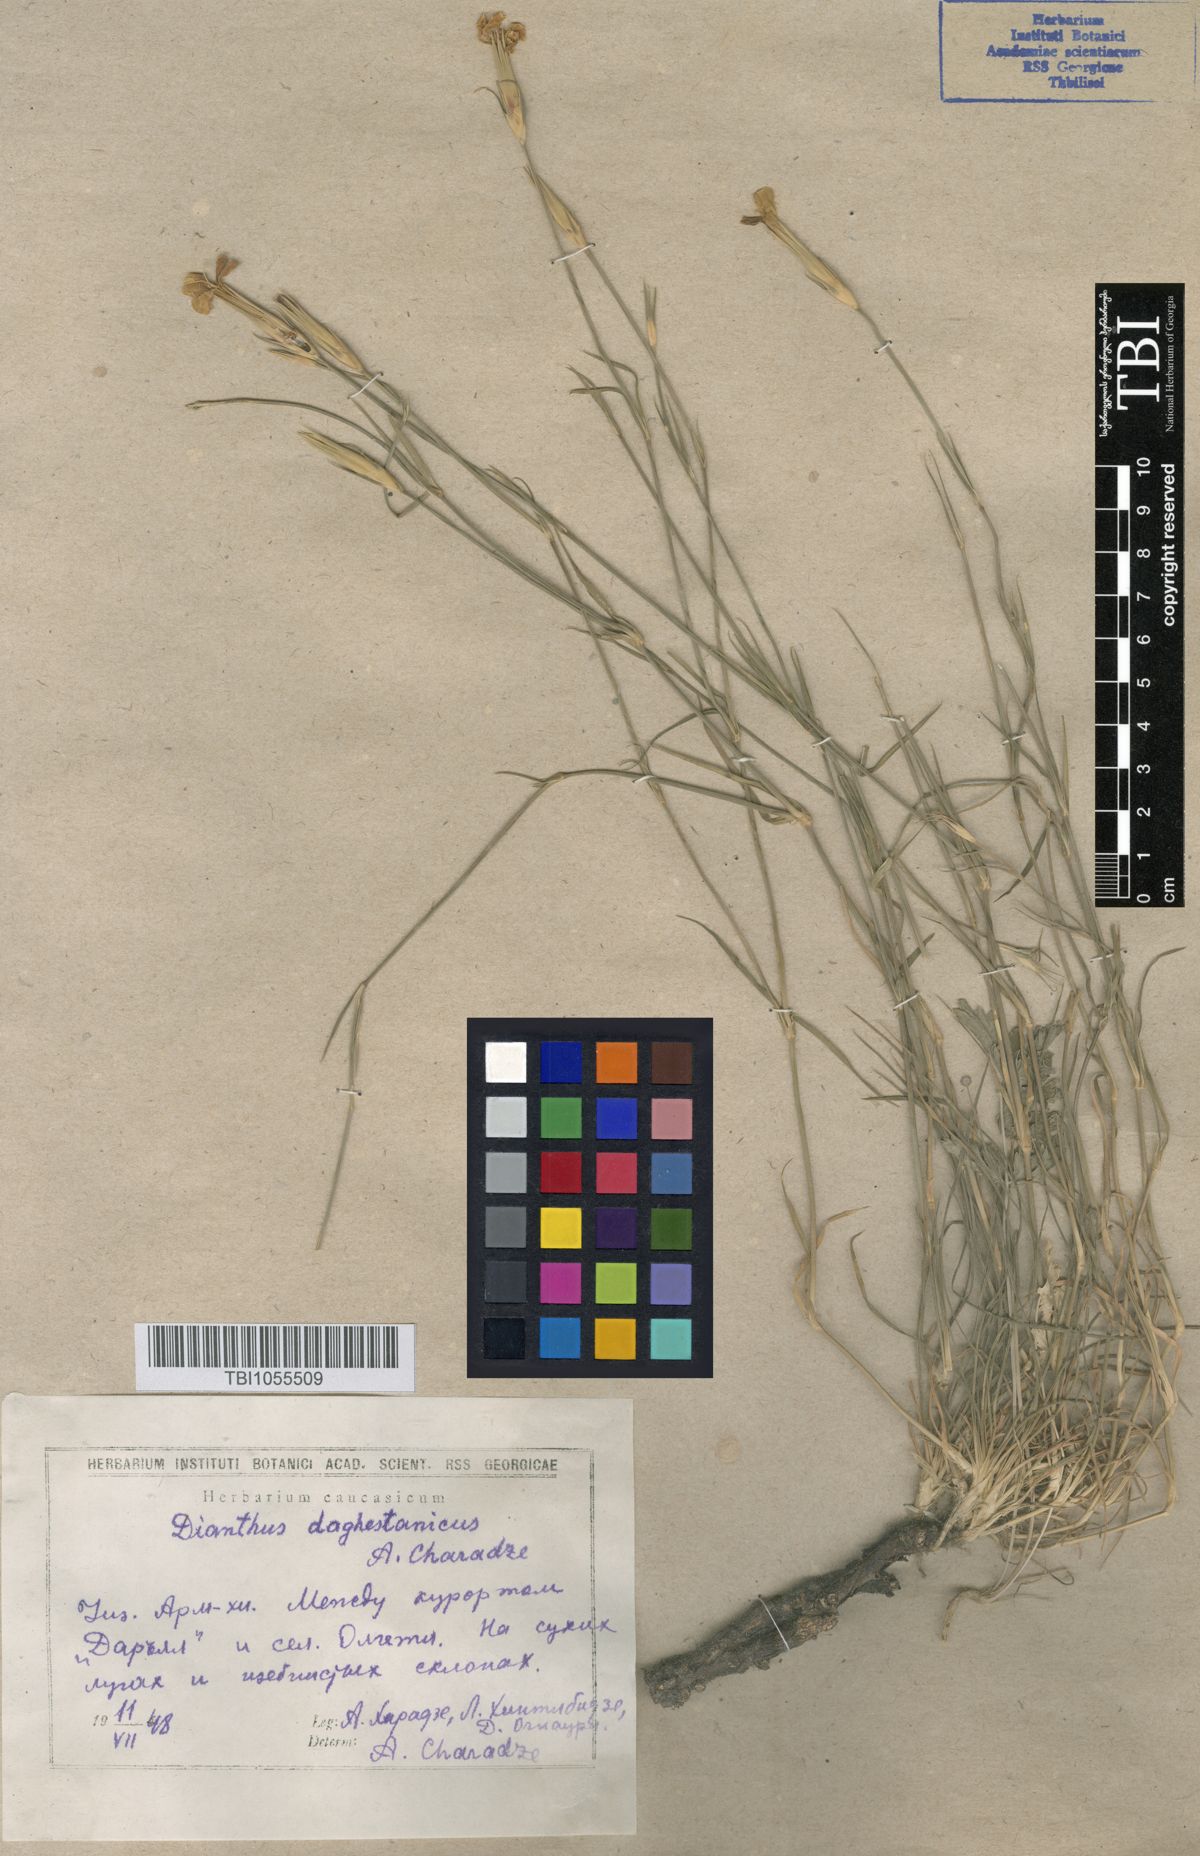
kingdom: Plantae
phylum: Tracheophyta
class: Magnoliopsida
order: Caryophyllales
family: Caryophyllaceae
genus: Dianthus
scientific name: Dianthus daghestanicus
